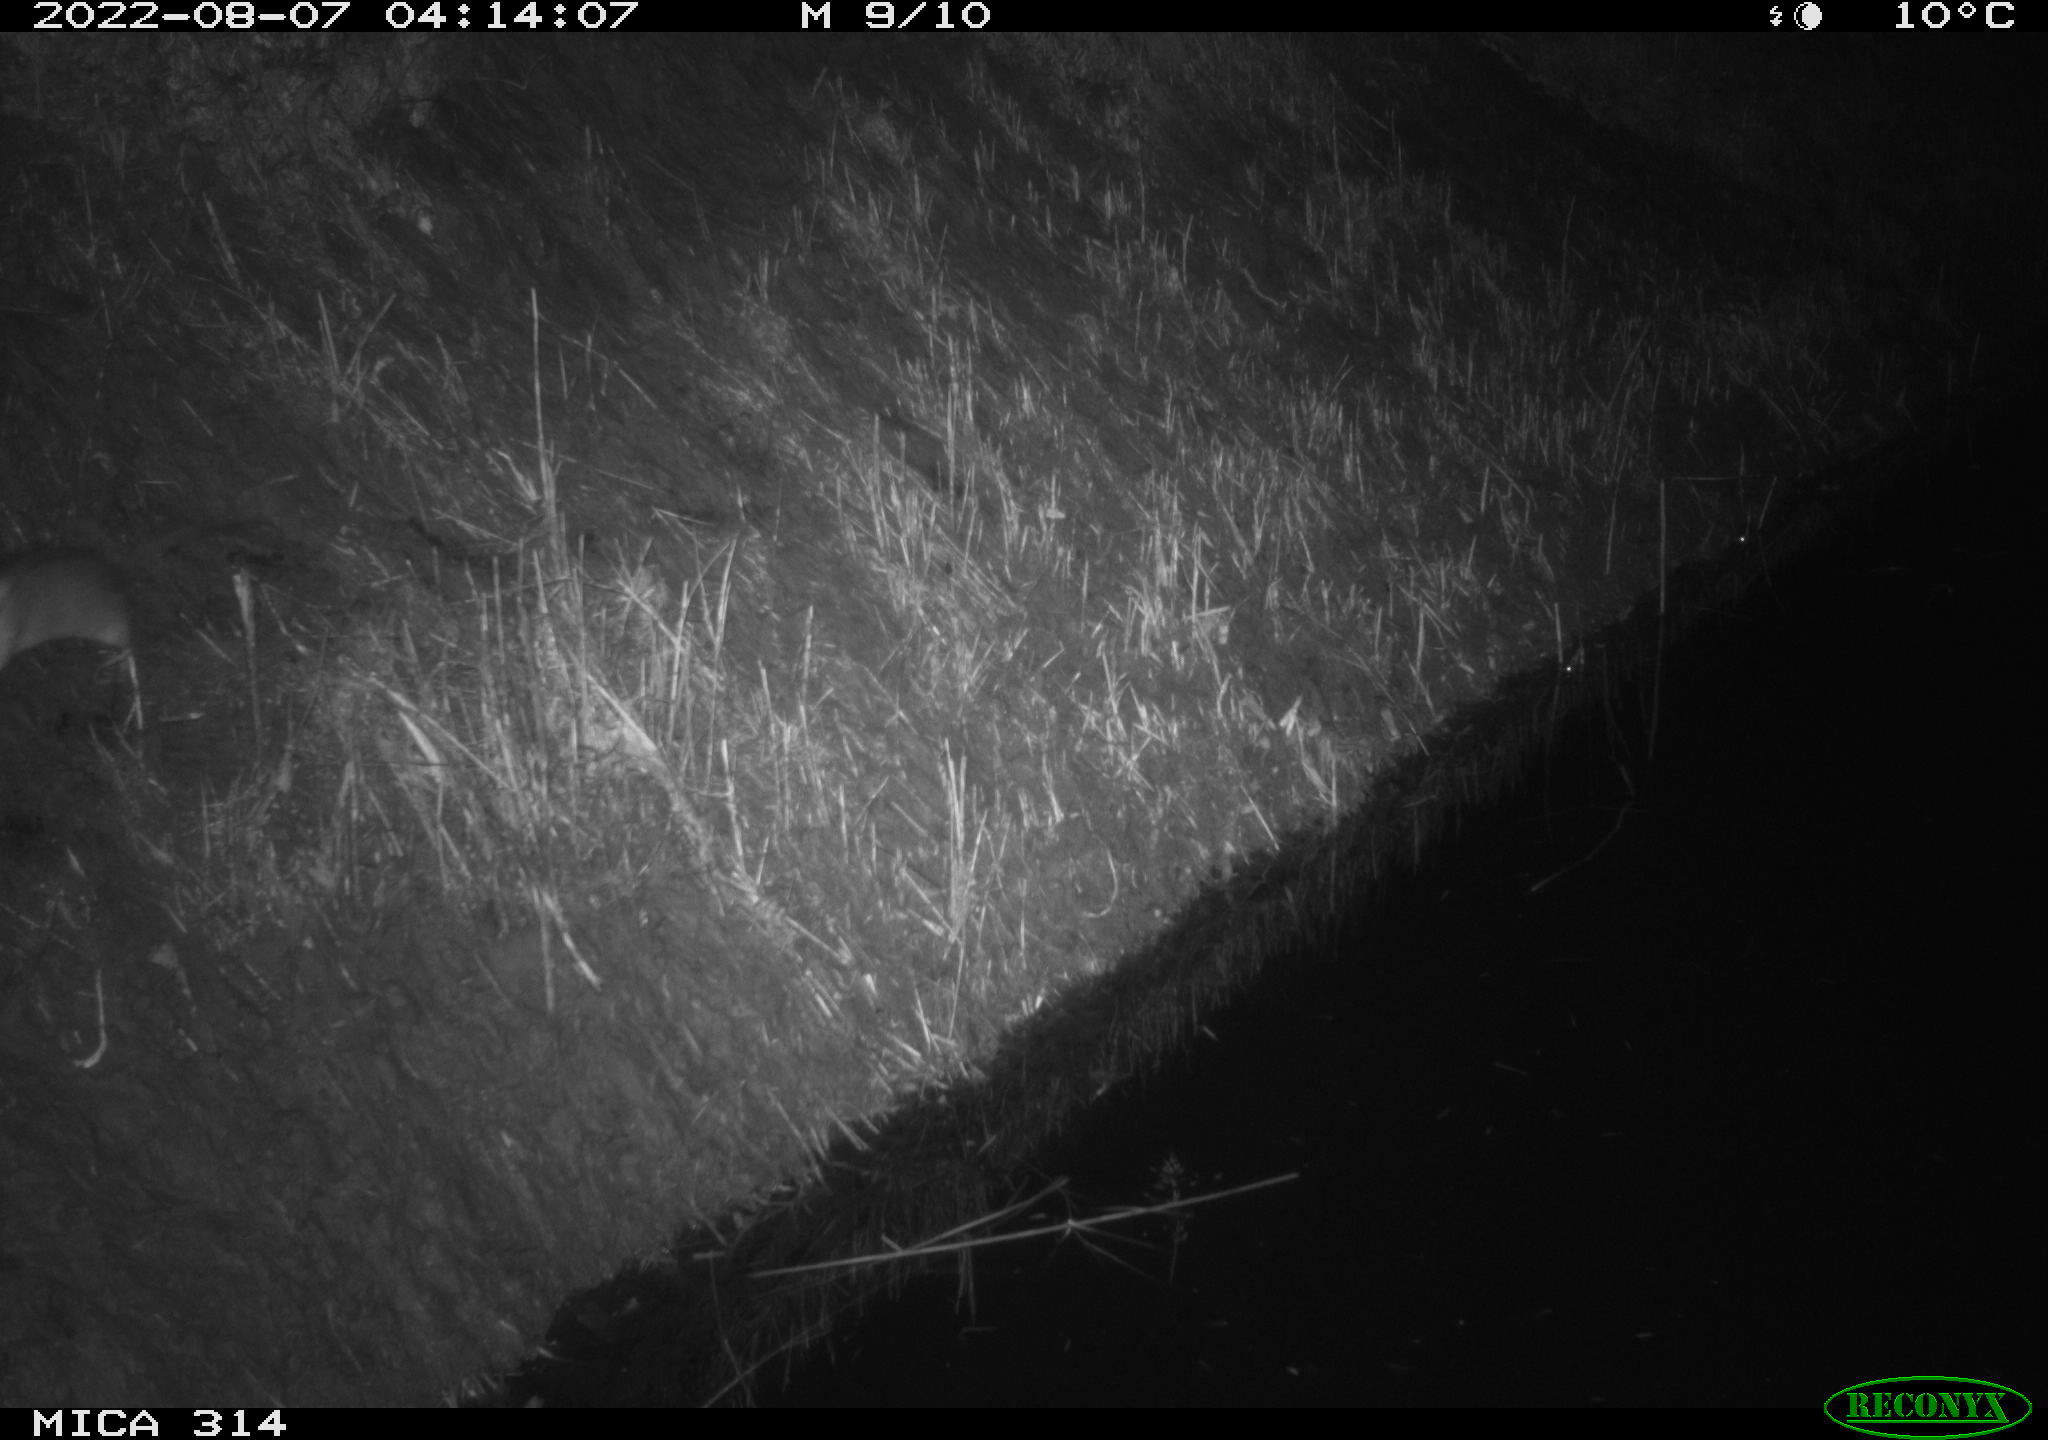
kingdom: Animalia
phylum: Chordata
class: Mammalia
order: Rodentia
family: Muridae
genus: Rattus
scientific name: Rattus norvegicus
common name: Brown rat
